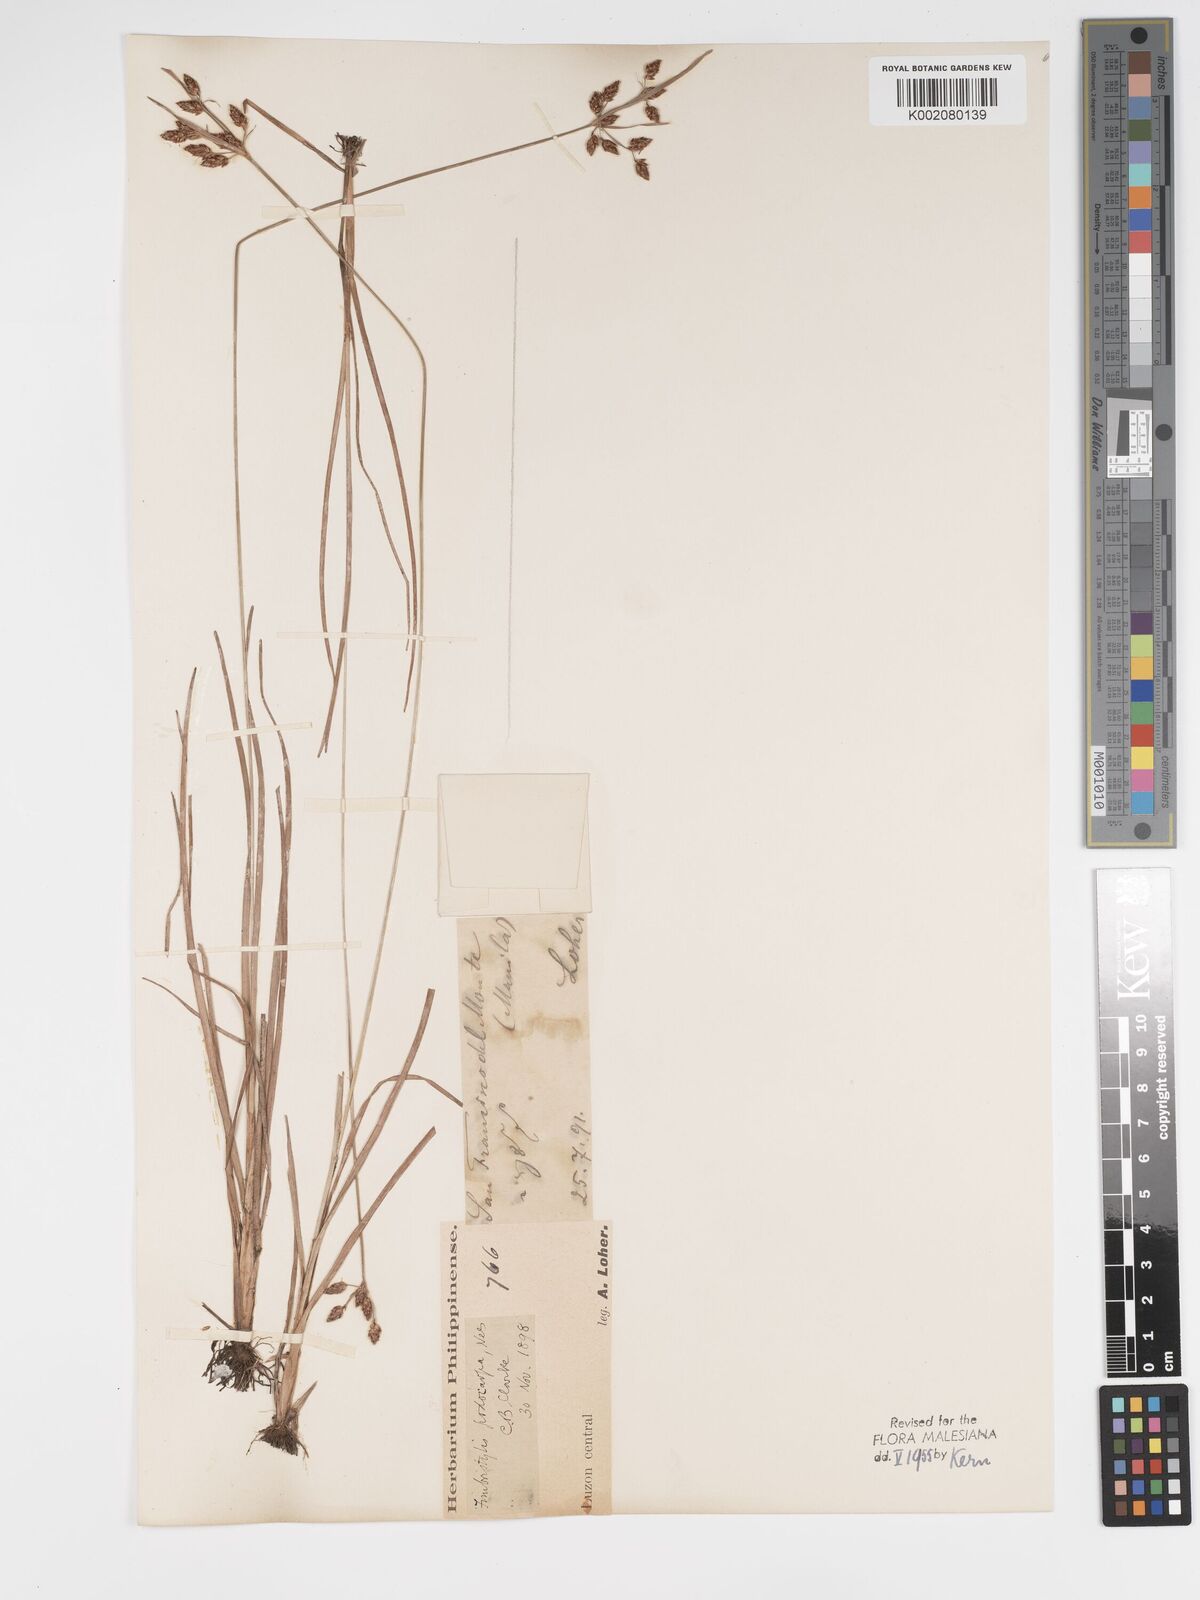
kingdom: Plantae
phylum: Tracheophyta
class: Liliopsida
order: Poales
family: Cyperaceae
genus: Fimbristylis
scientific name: Fimbristylis dichotoma
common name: Forked fimbry
